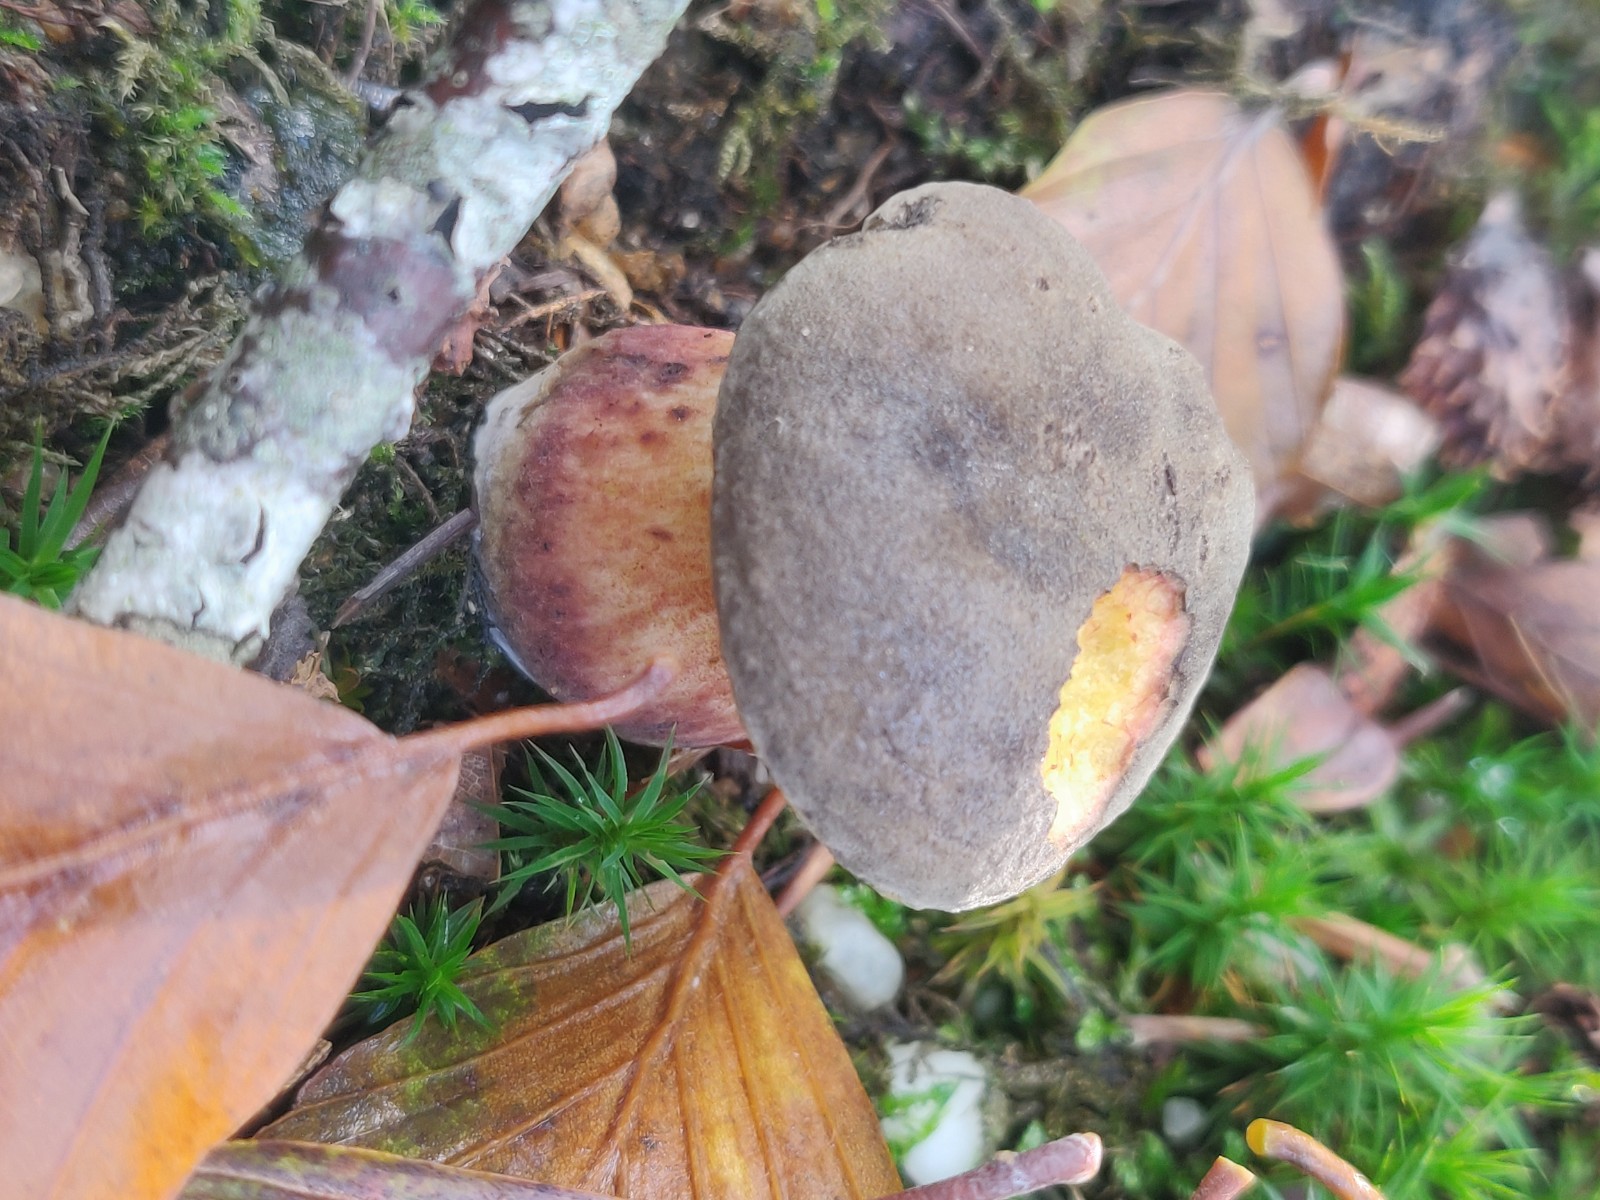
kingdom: Fungi
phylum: Basidiomycota
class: Agaricomycetes
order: Boletales
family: Boletaceae
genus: Xerocomellus
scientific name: Xerocomellus
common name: dværgrørhat
